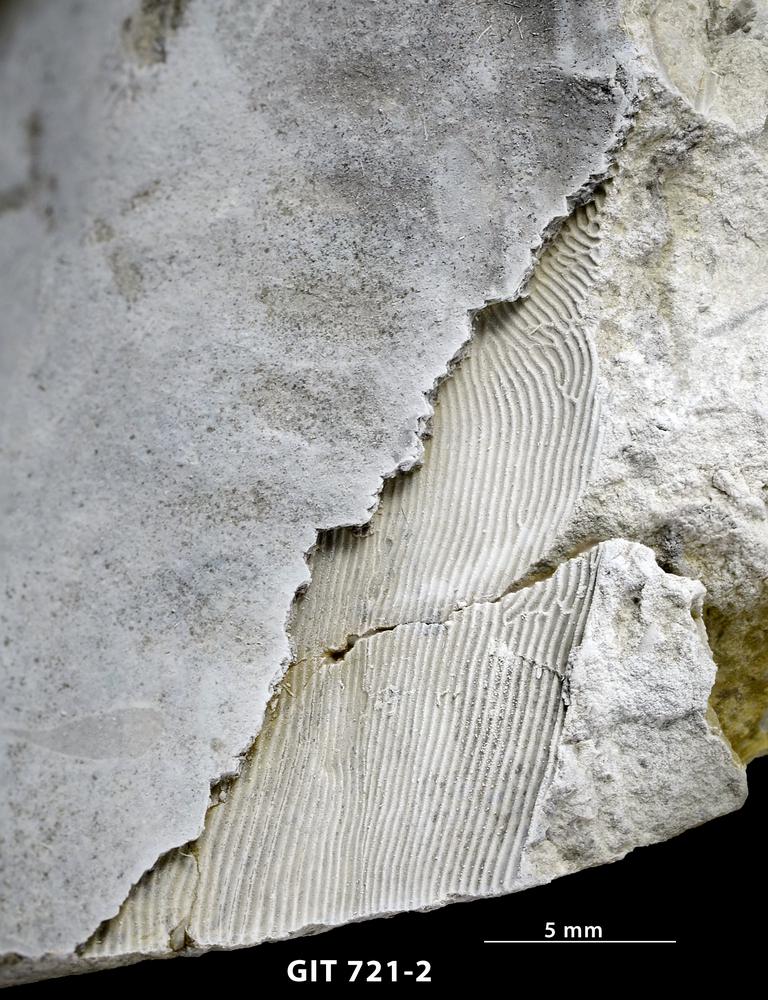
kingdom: Animalia
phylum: Chordata
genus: Archegonaspis
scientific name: Archegonaspis
